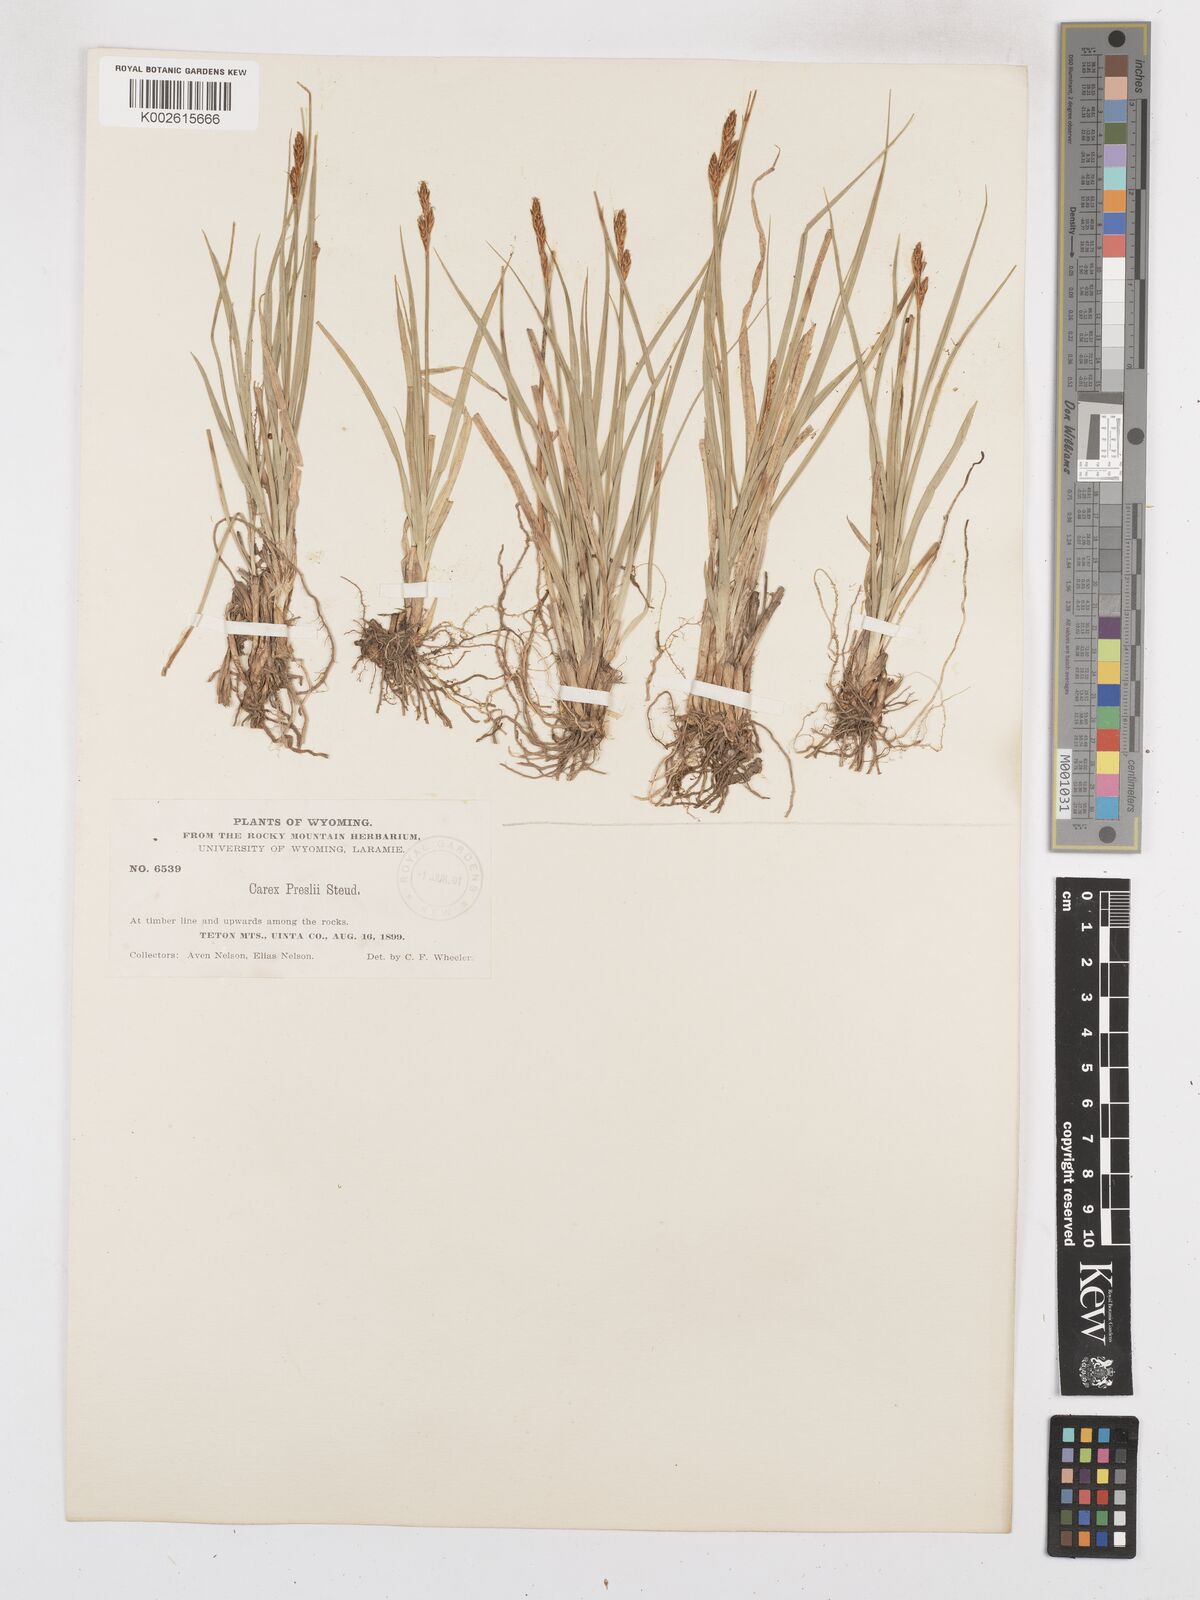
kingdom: Plantae
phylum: Tracheophyta
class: Liliopsida
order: Poales
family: Cyperaceae
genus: Carex
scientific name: Carex preslii
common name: Presl's sedge
